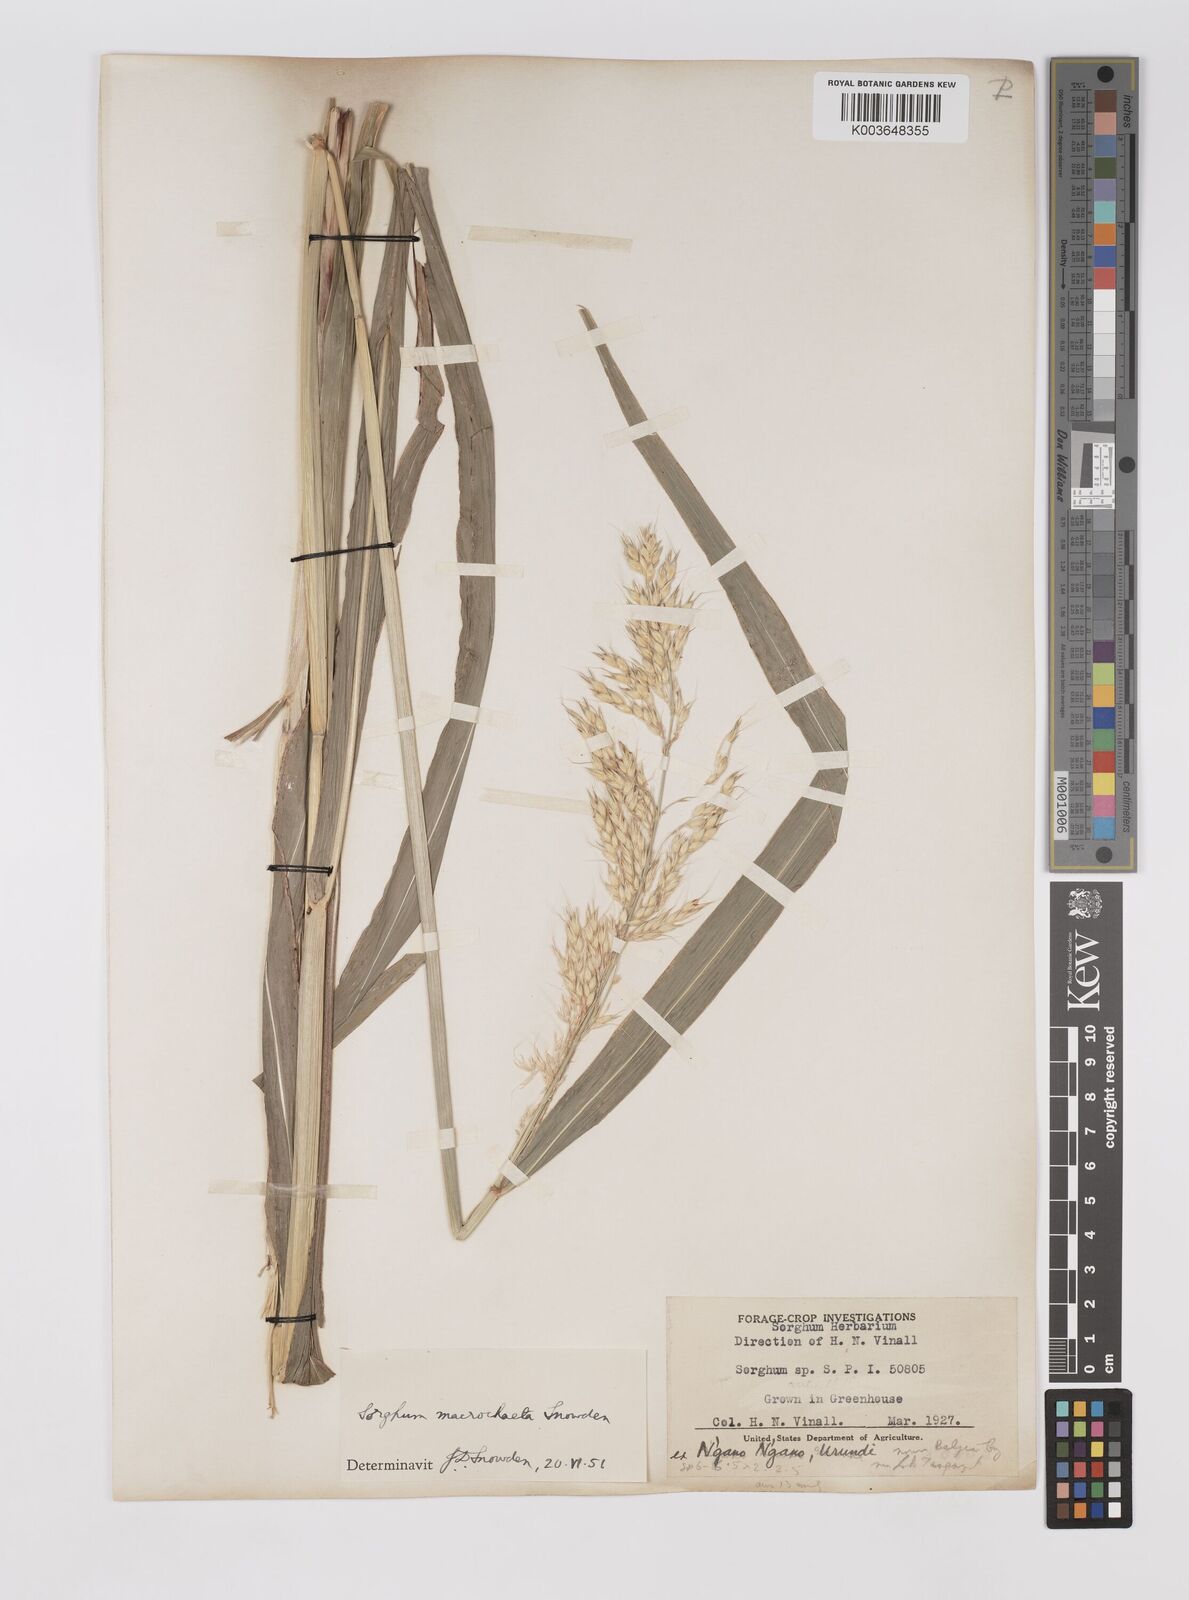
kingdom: Plantae
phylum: Tracheophyta
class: Liliopsida
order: Poales
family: Poaceae
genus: Sorghum
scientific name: Sorghum arundinaceum
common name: Sorghum
